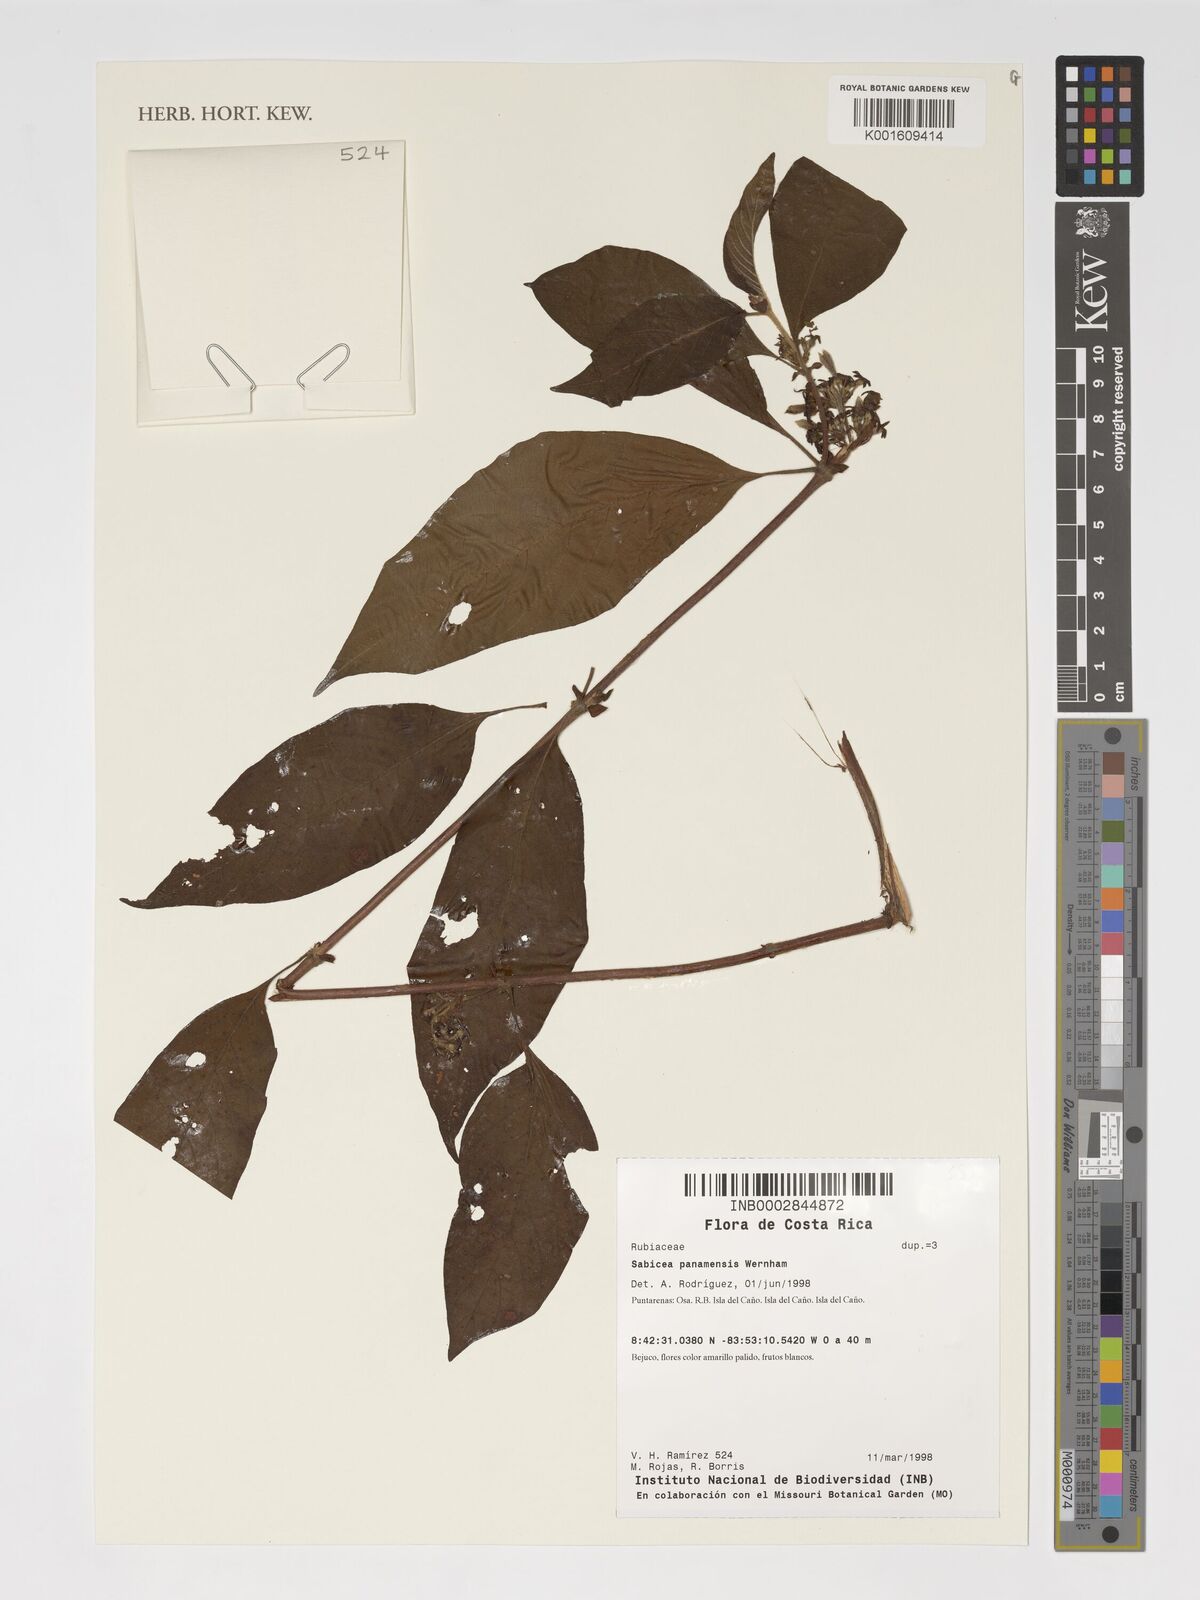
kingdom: Plantae
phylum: Tracheophyta
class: Magnoliopsida
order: Gentianales
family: Rubiaceae
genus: Sabicea
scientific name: Sabicea panamensis
